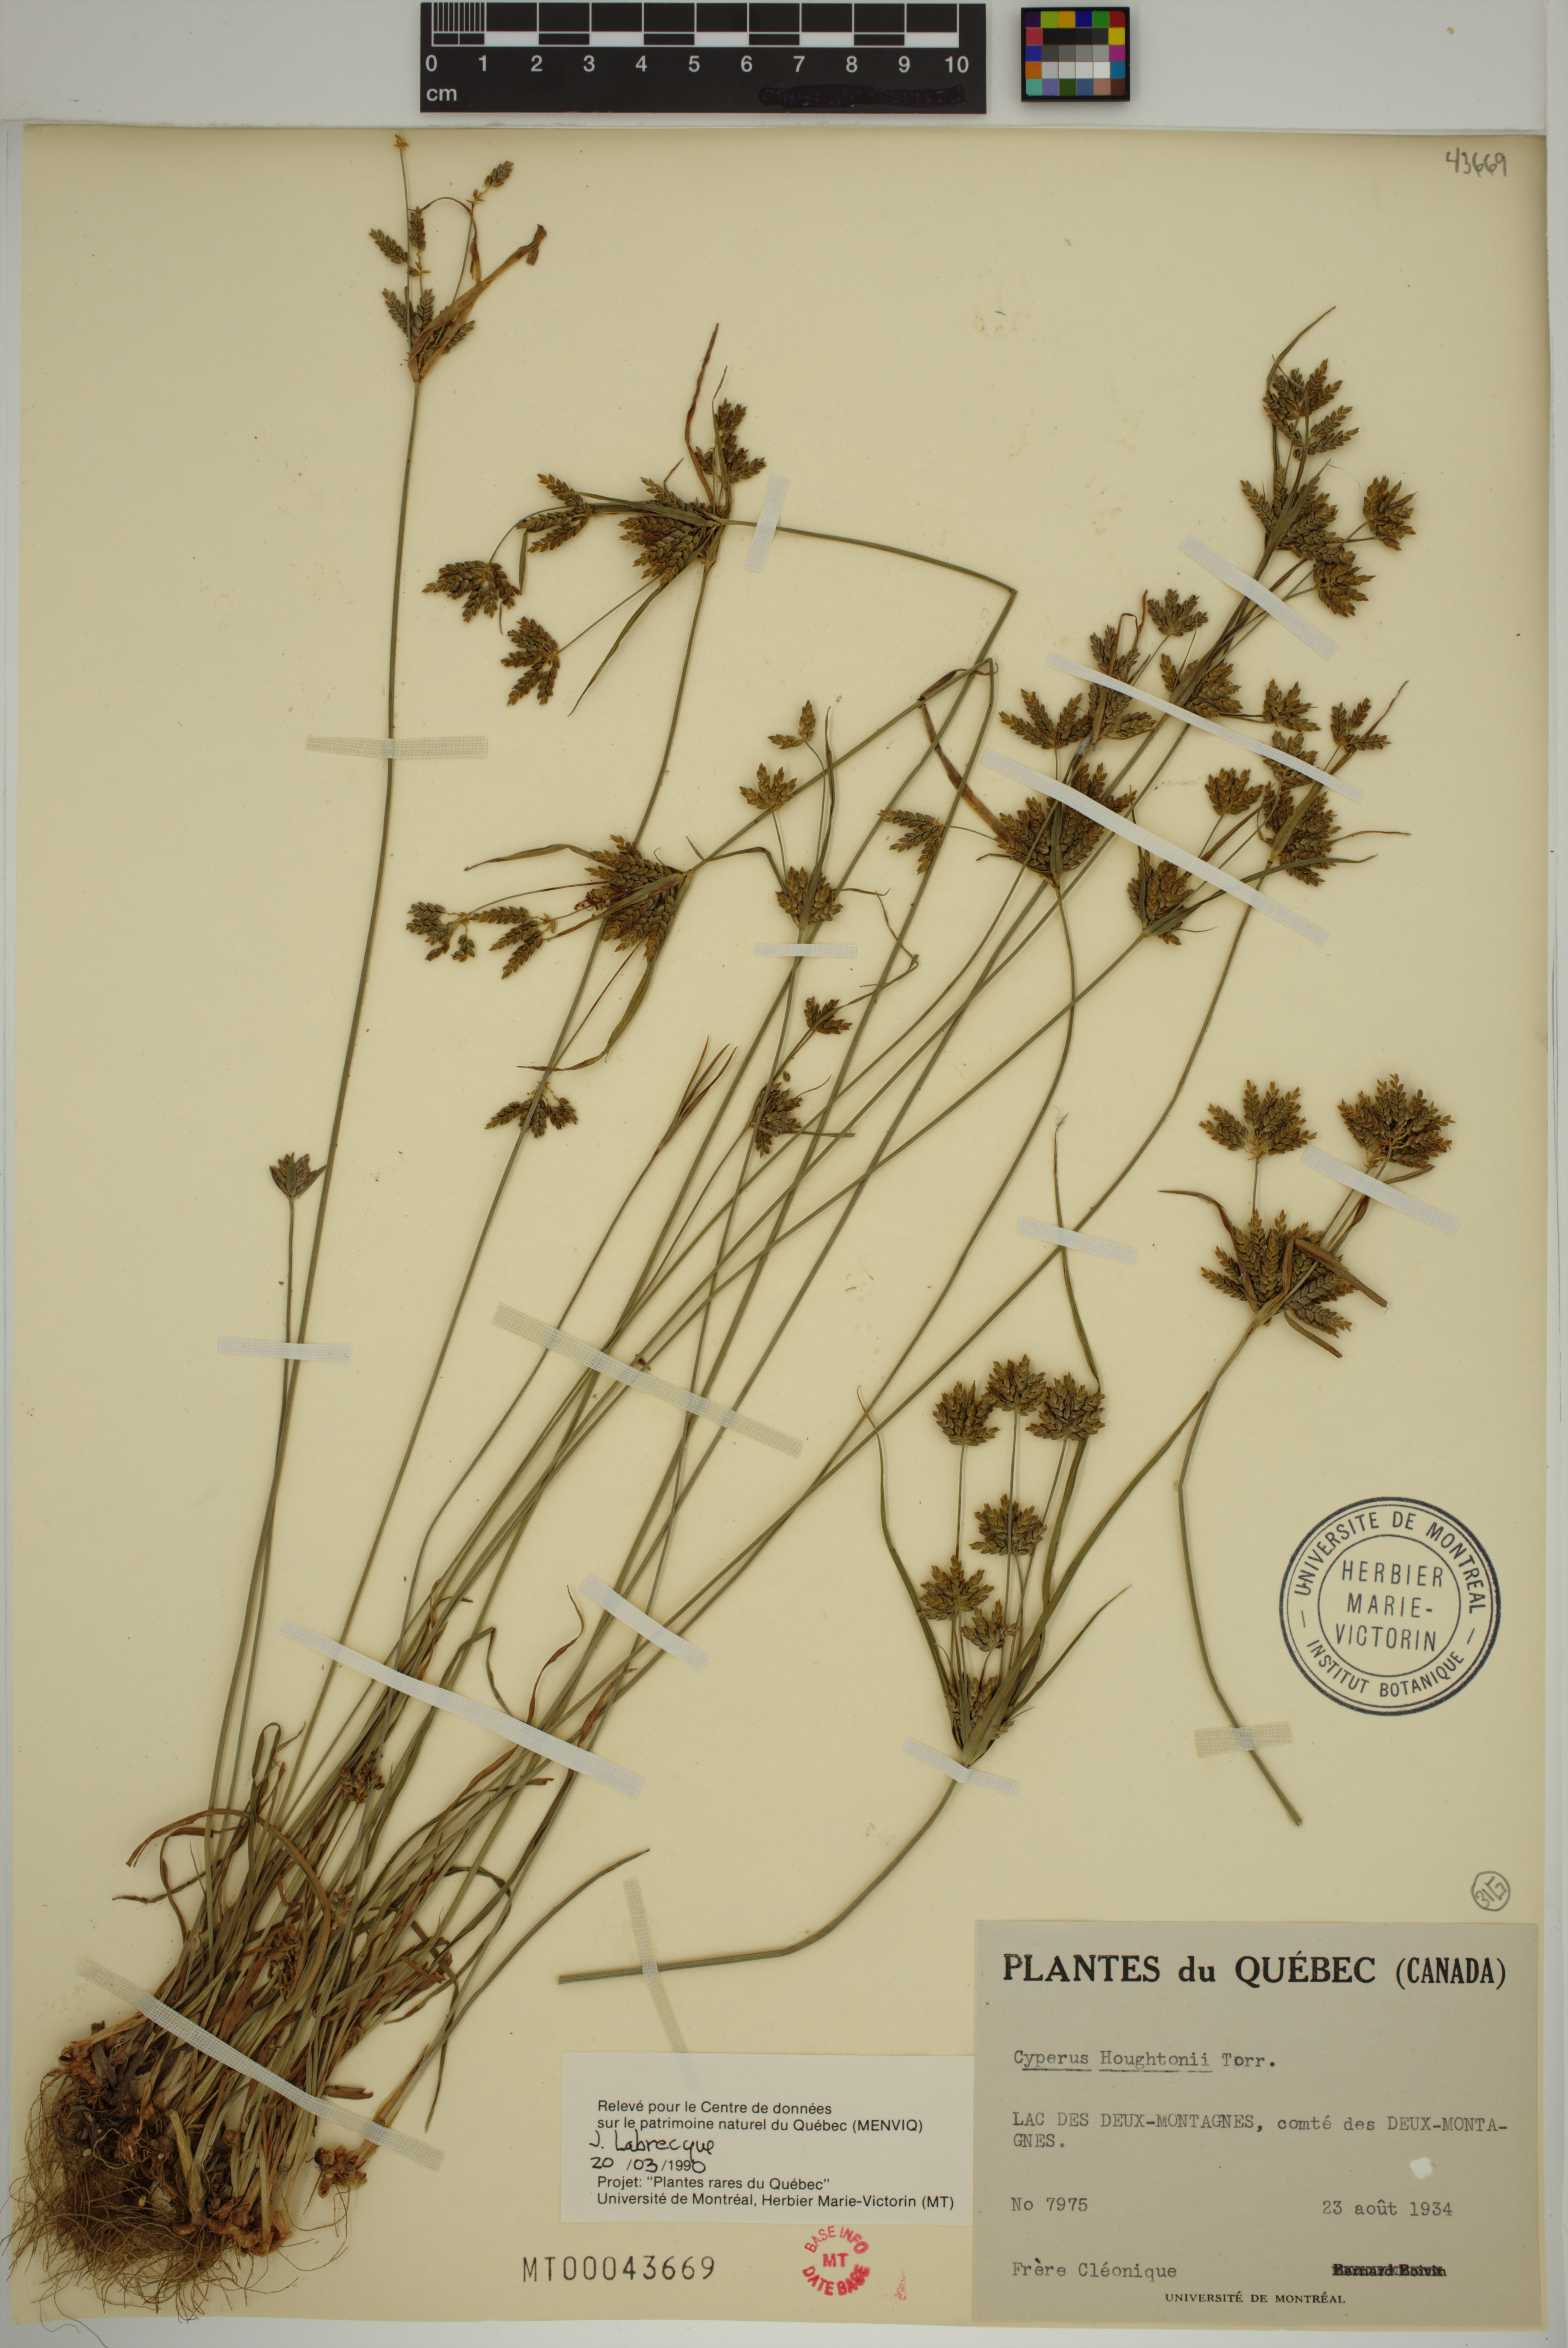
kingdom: Plantae
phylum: Tracheophyta
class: Liliopsida
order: Poales
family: Cyperaceae
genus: Cyperus
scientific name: Cyperus houghtonii
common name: Houghton's cyperus
